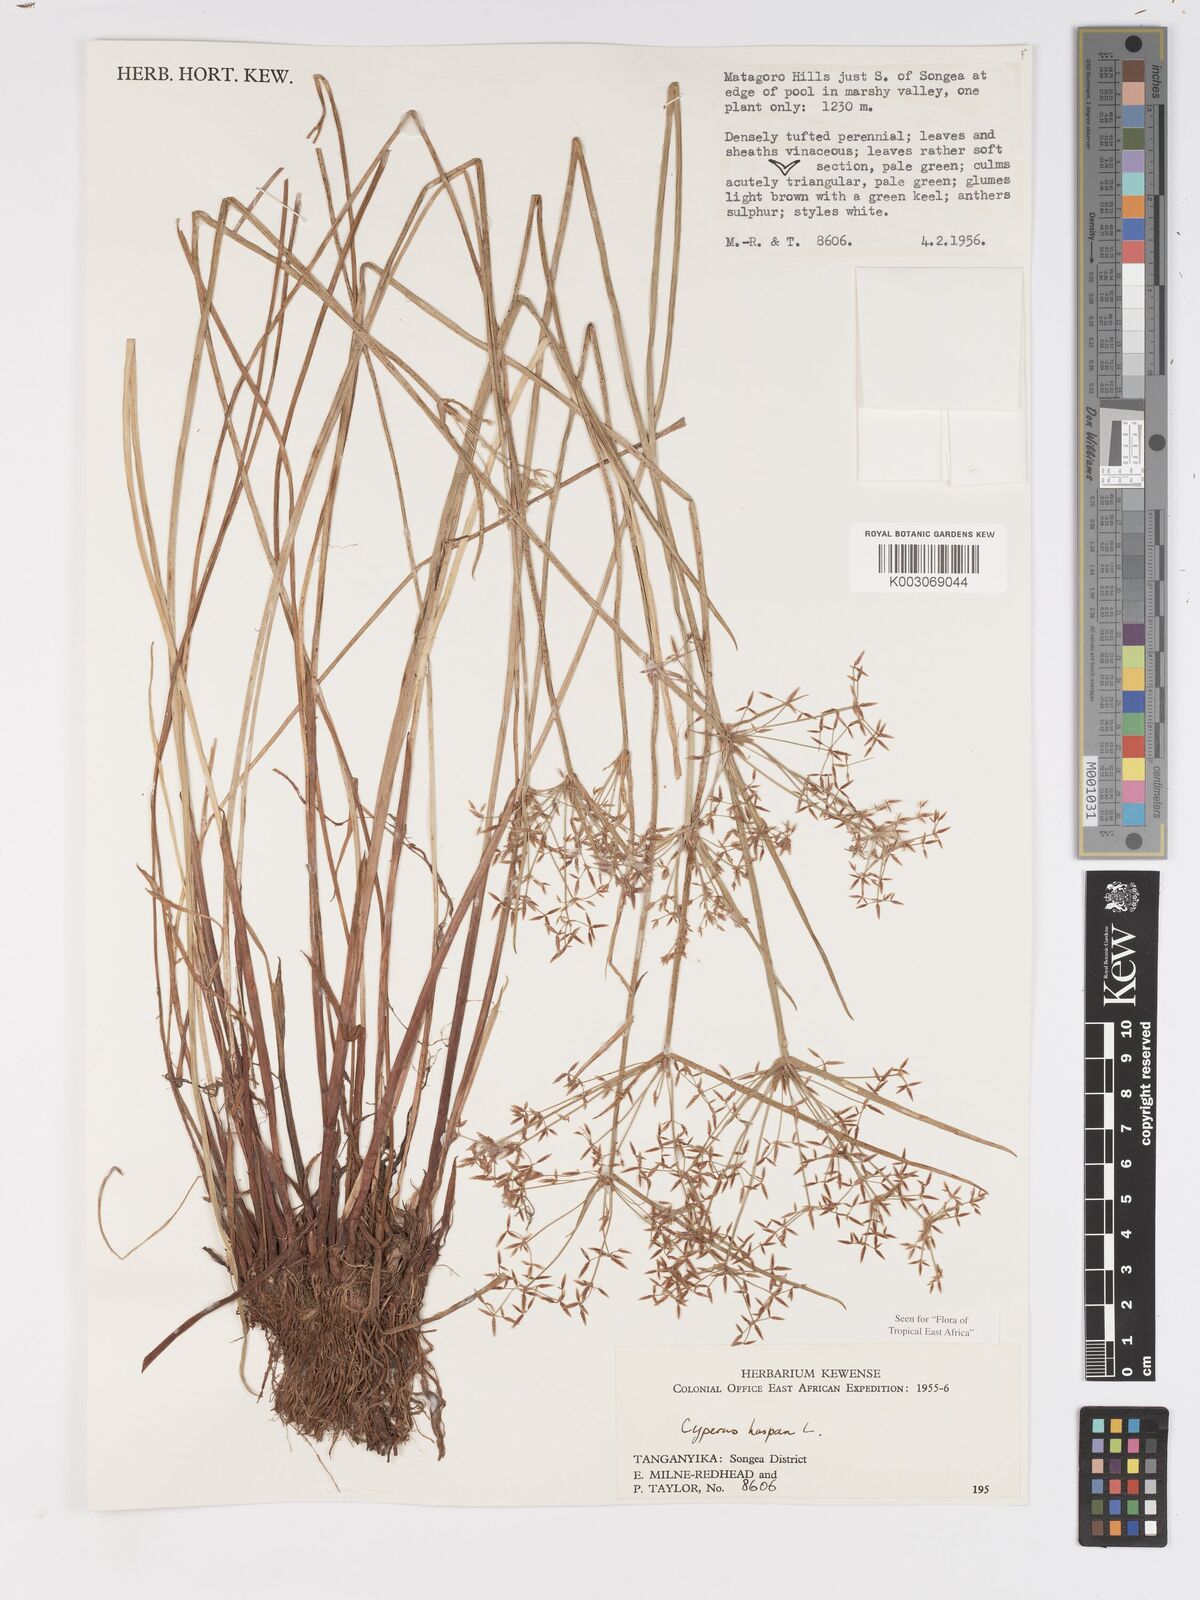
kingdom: Plantae
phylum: Tracheophyta
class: Liliopsida
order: Poales
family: Cyperaceae
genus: Cyperus
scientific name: Cyperus haspan
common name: Haspan flatsedge
